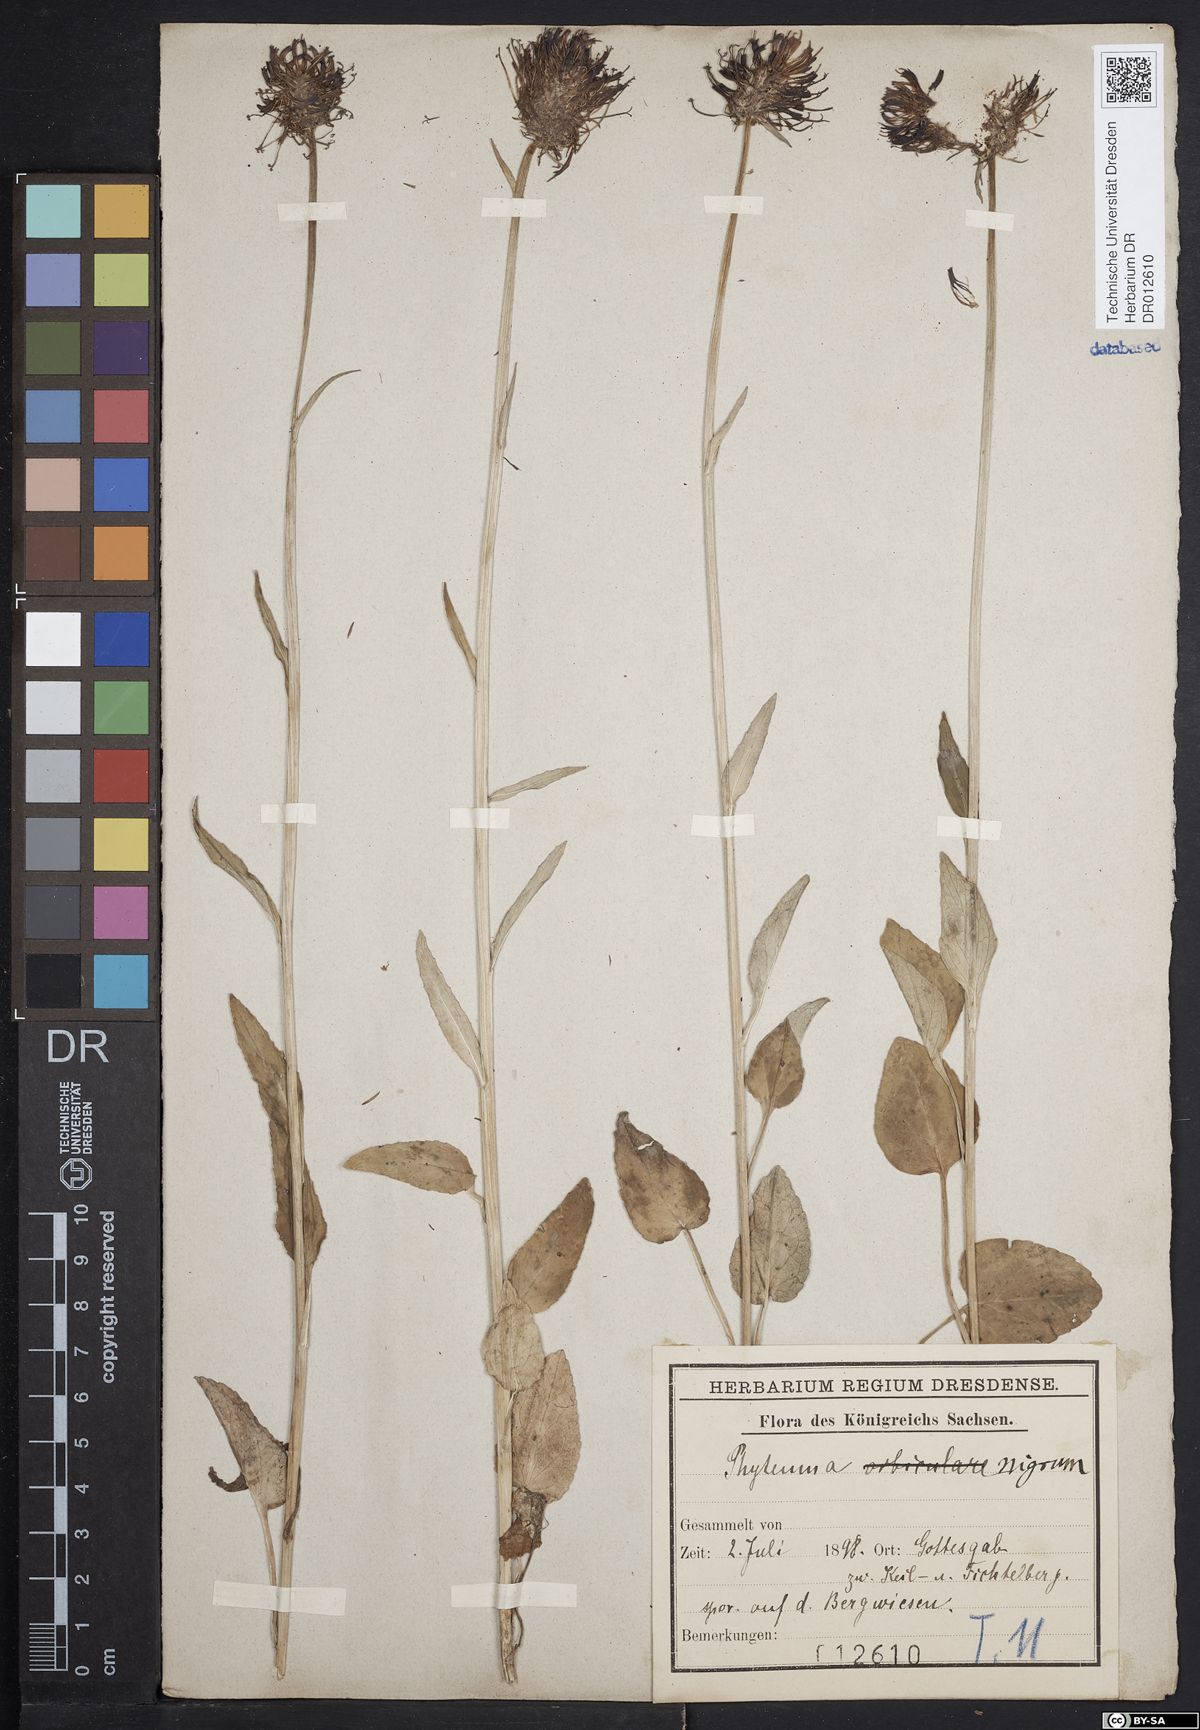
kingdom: Plantae
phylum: Tracheophyta
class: Magnoliopsida
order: Asterales
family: Campanulaceae
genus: Phyteuma
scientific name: Phyteuma nigrum
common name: Black rampion
